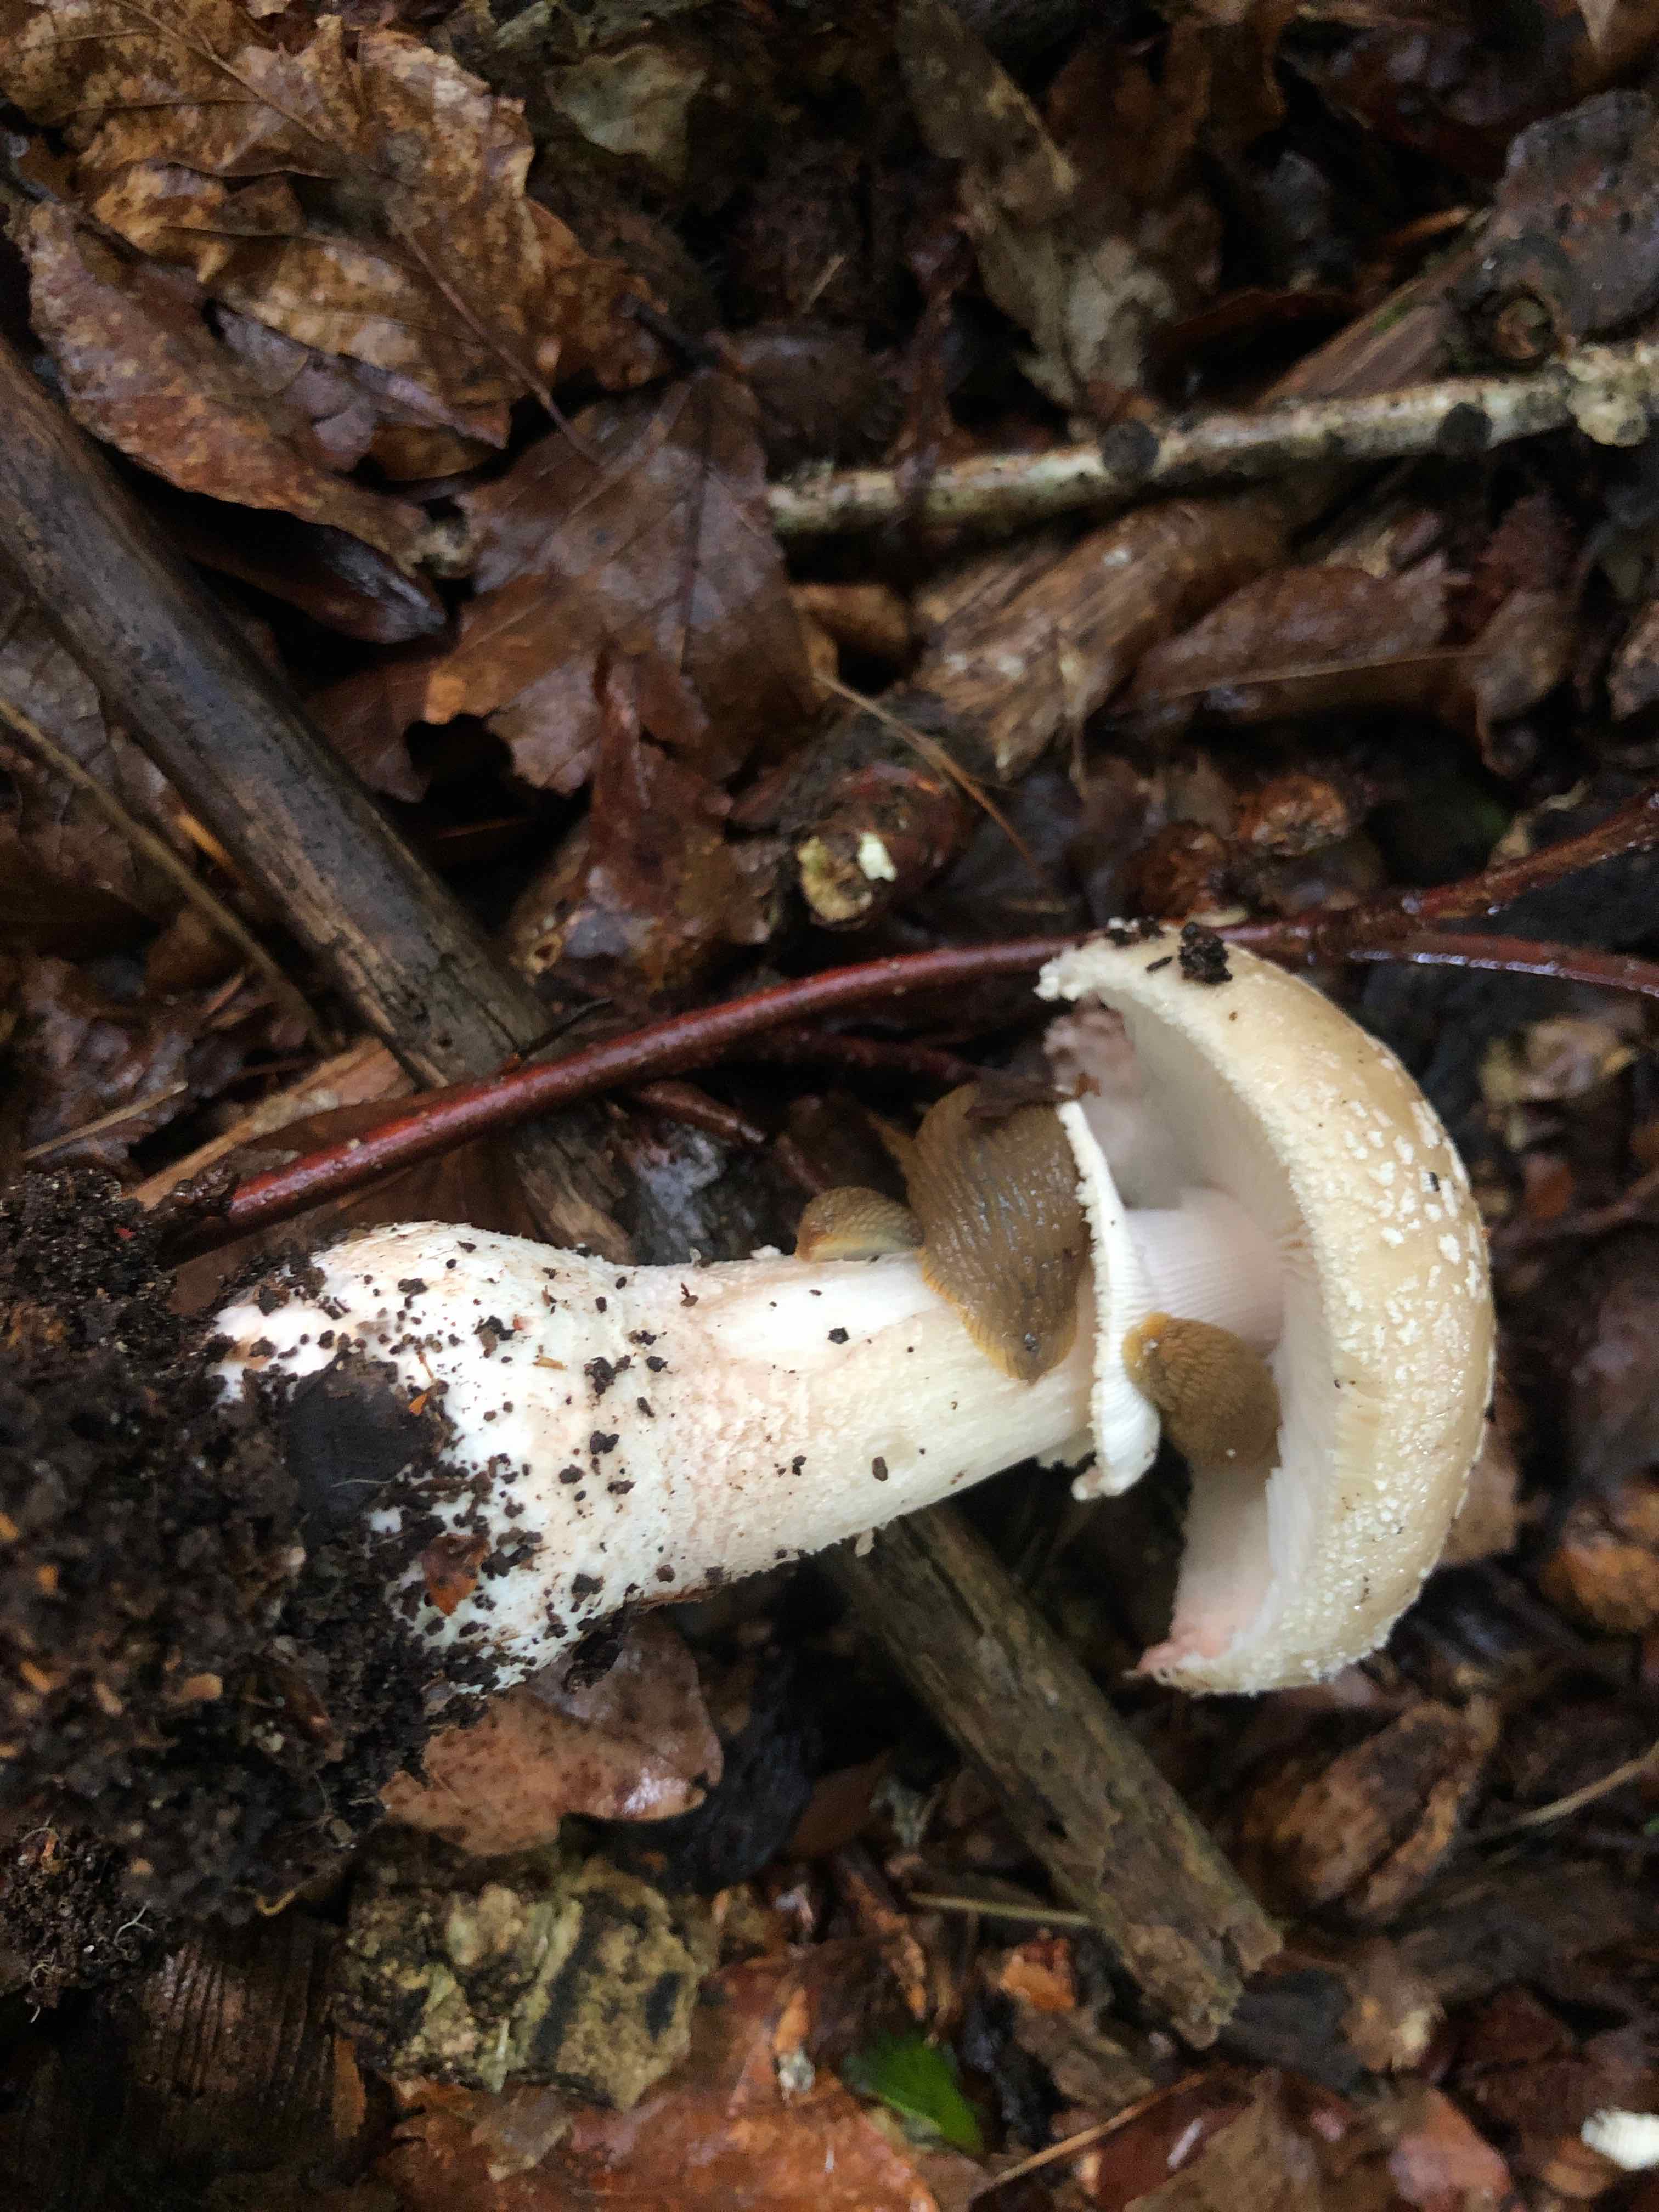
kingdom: Fungi
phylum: Basidiomycota
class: Agaricomycetes
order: Agaricales
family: Amanitaceae
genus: Amanita
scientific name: Amanita rubescens
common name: rødmende fluesvamp
